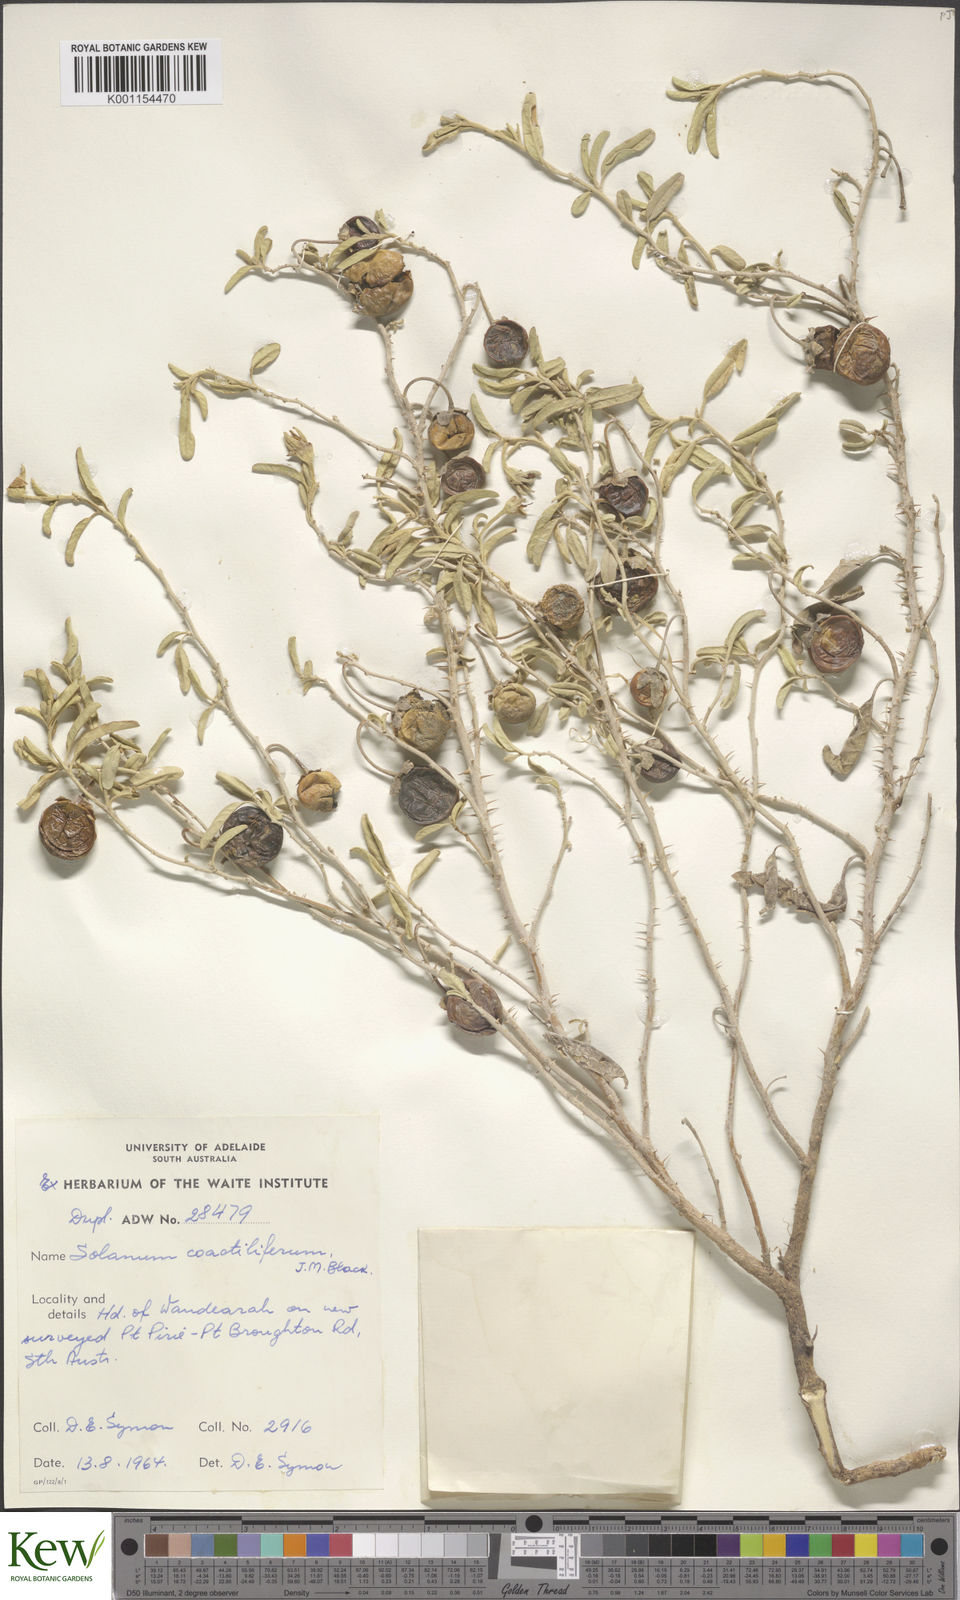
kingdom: Plantae
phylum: Tracheophyta
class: Magnoliopsida
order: Solanales
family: Solanaceae
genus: Solanum
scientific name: Solanum coactiliferum
